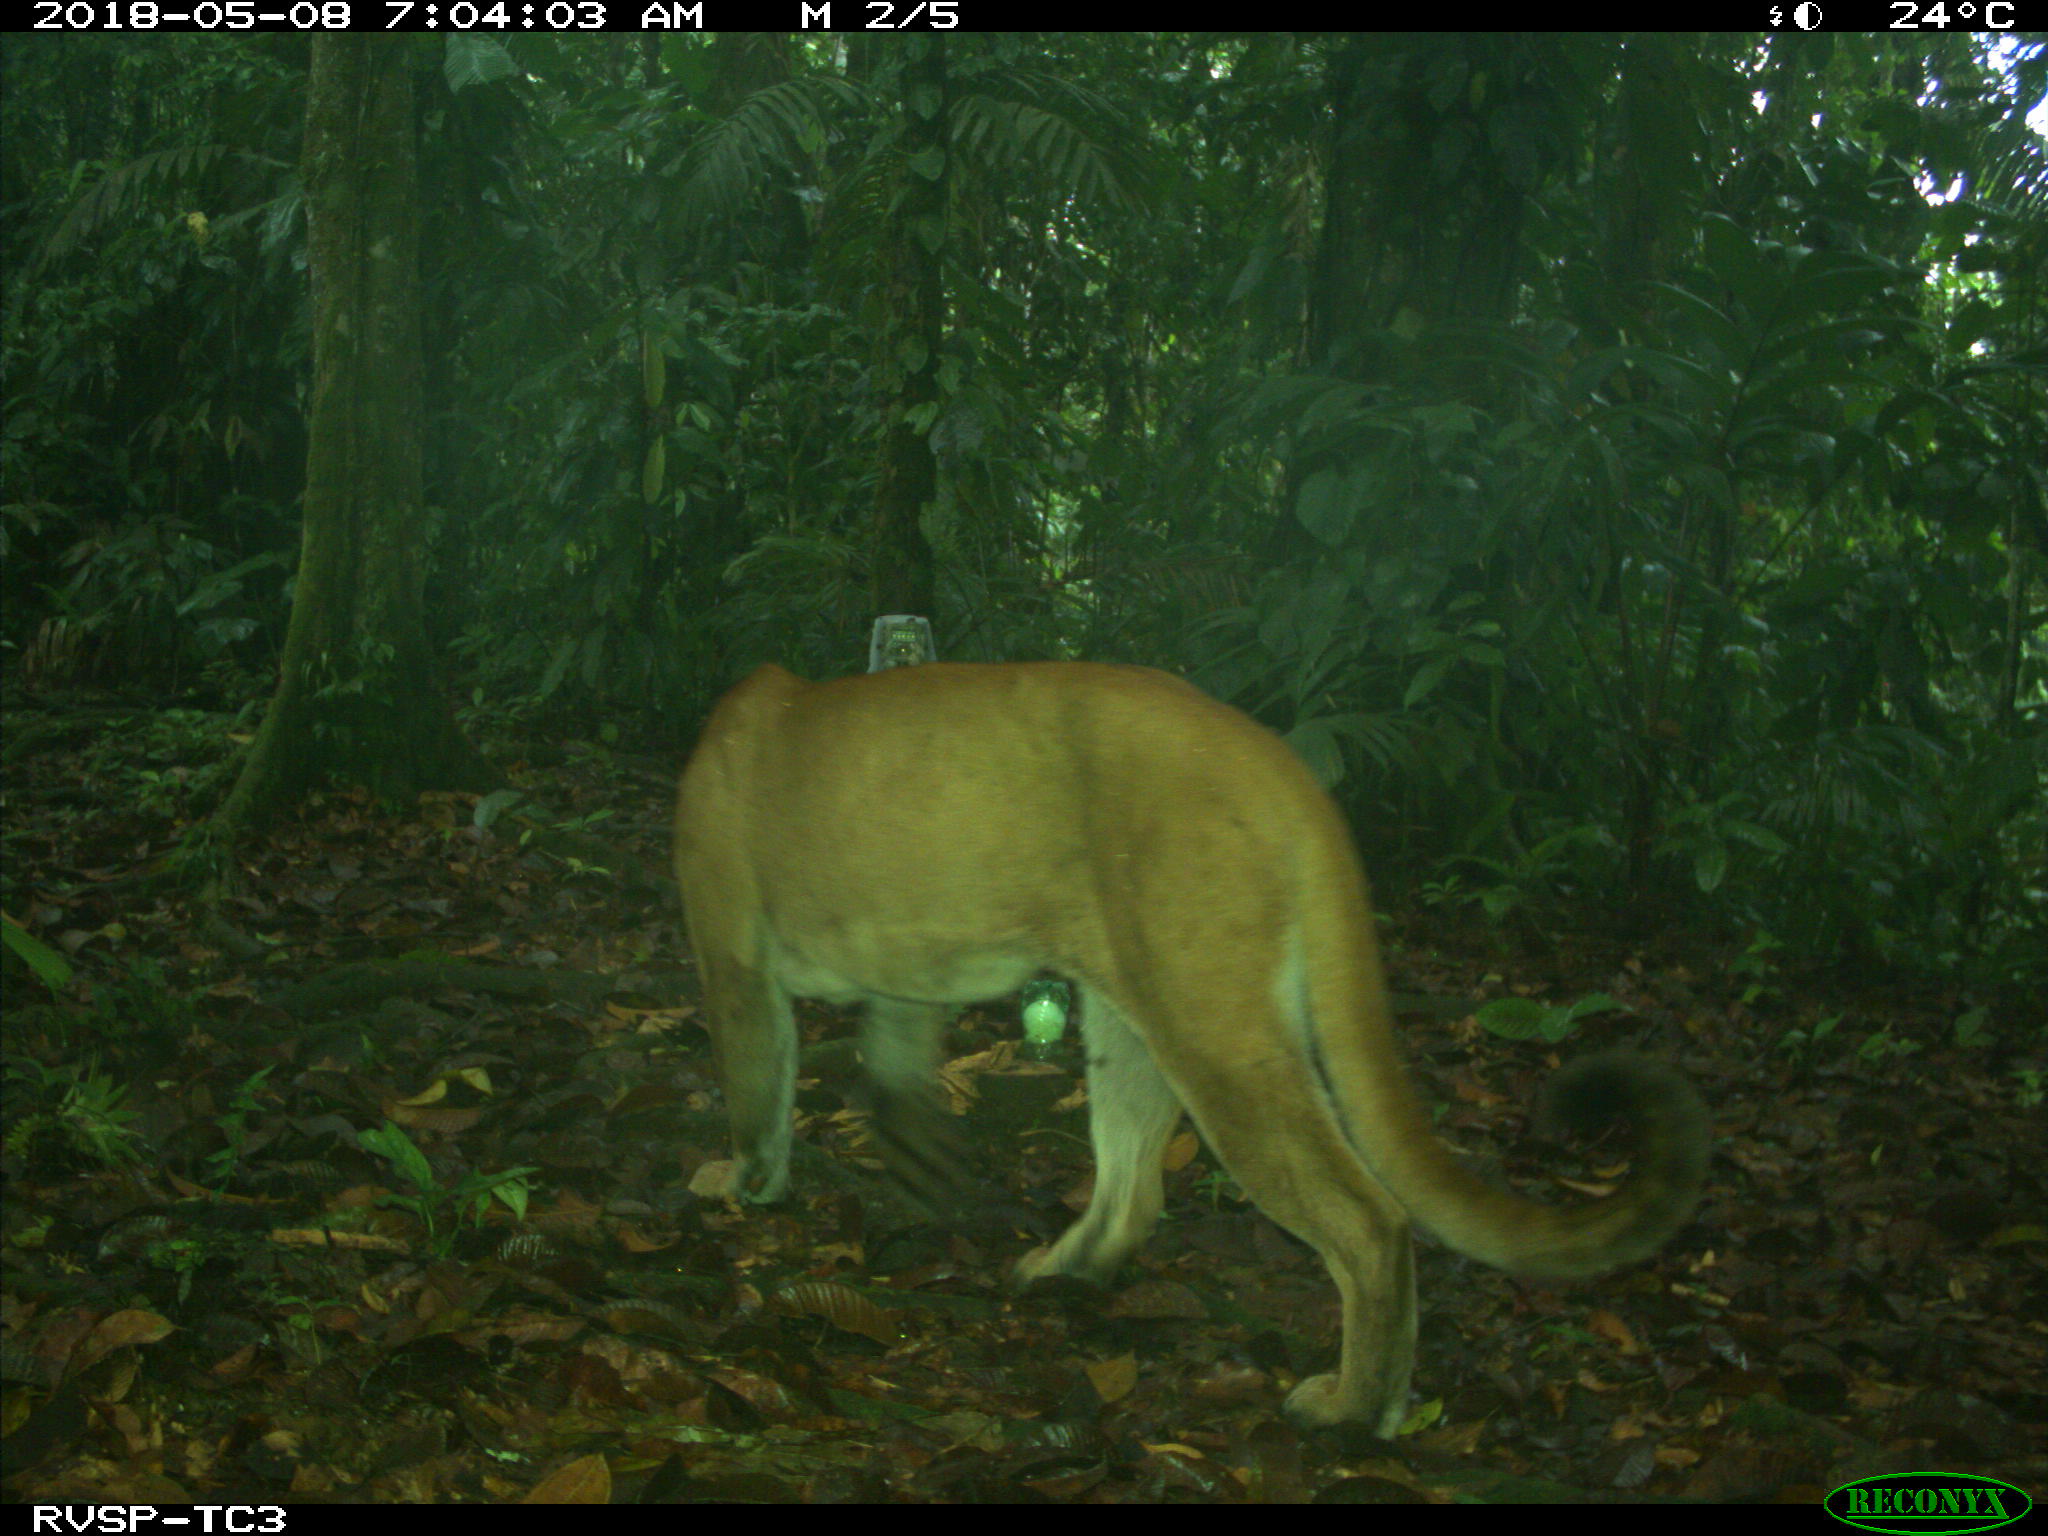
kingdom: Animalia
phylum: Chordata
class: Mammalia
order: Carnivora
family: Felidae
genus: Puma
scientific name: Puma concolor
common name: Puma
